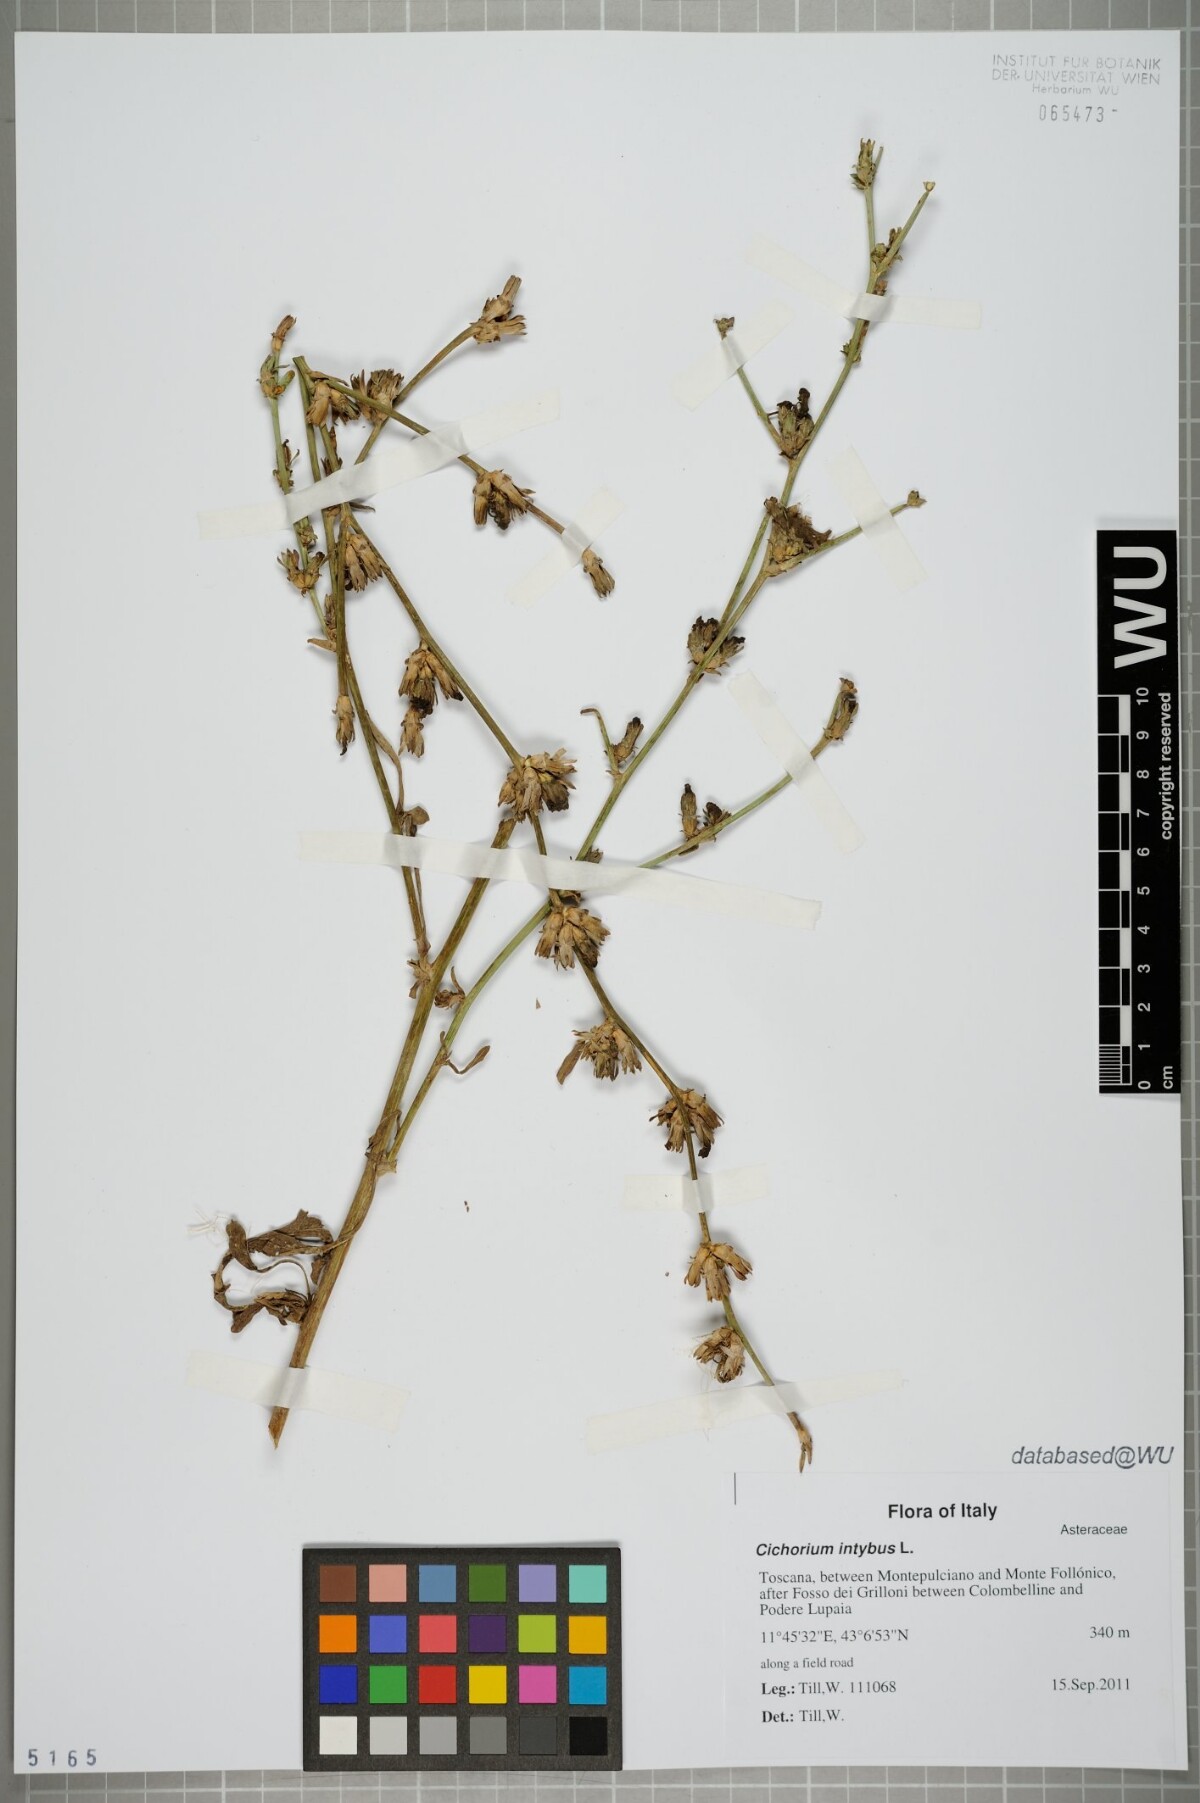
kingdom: Plantae
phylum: Tracheophyta
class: Magnoliopsida
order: Asterales
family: Asteraceae
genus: Cichorium
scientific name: Cichorium intybus
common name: Chicory
